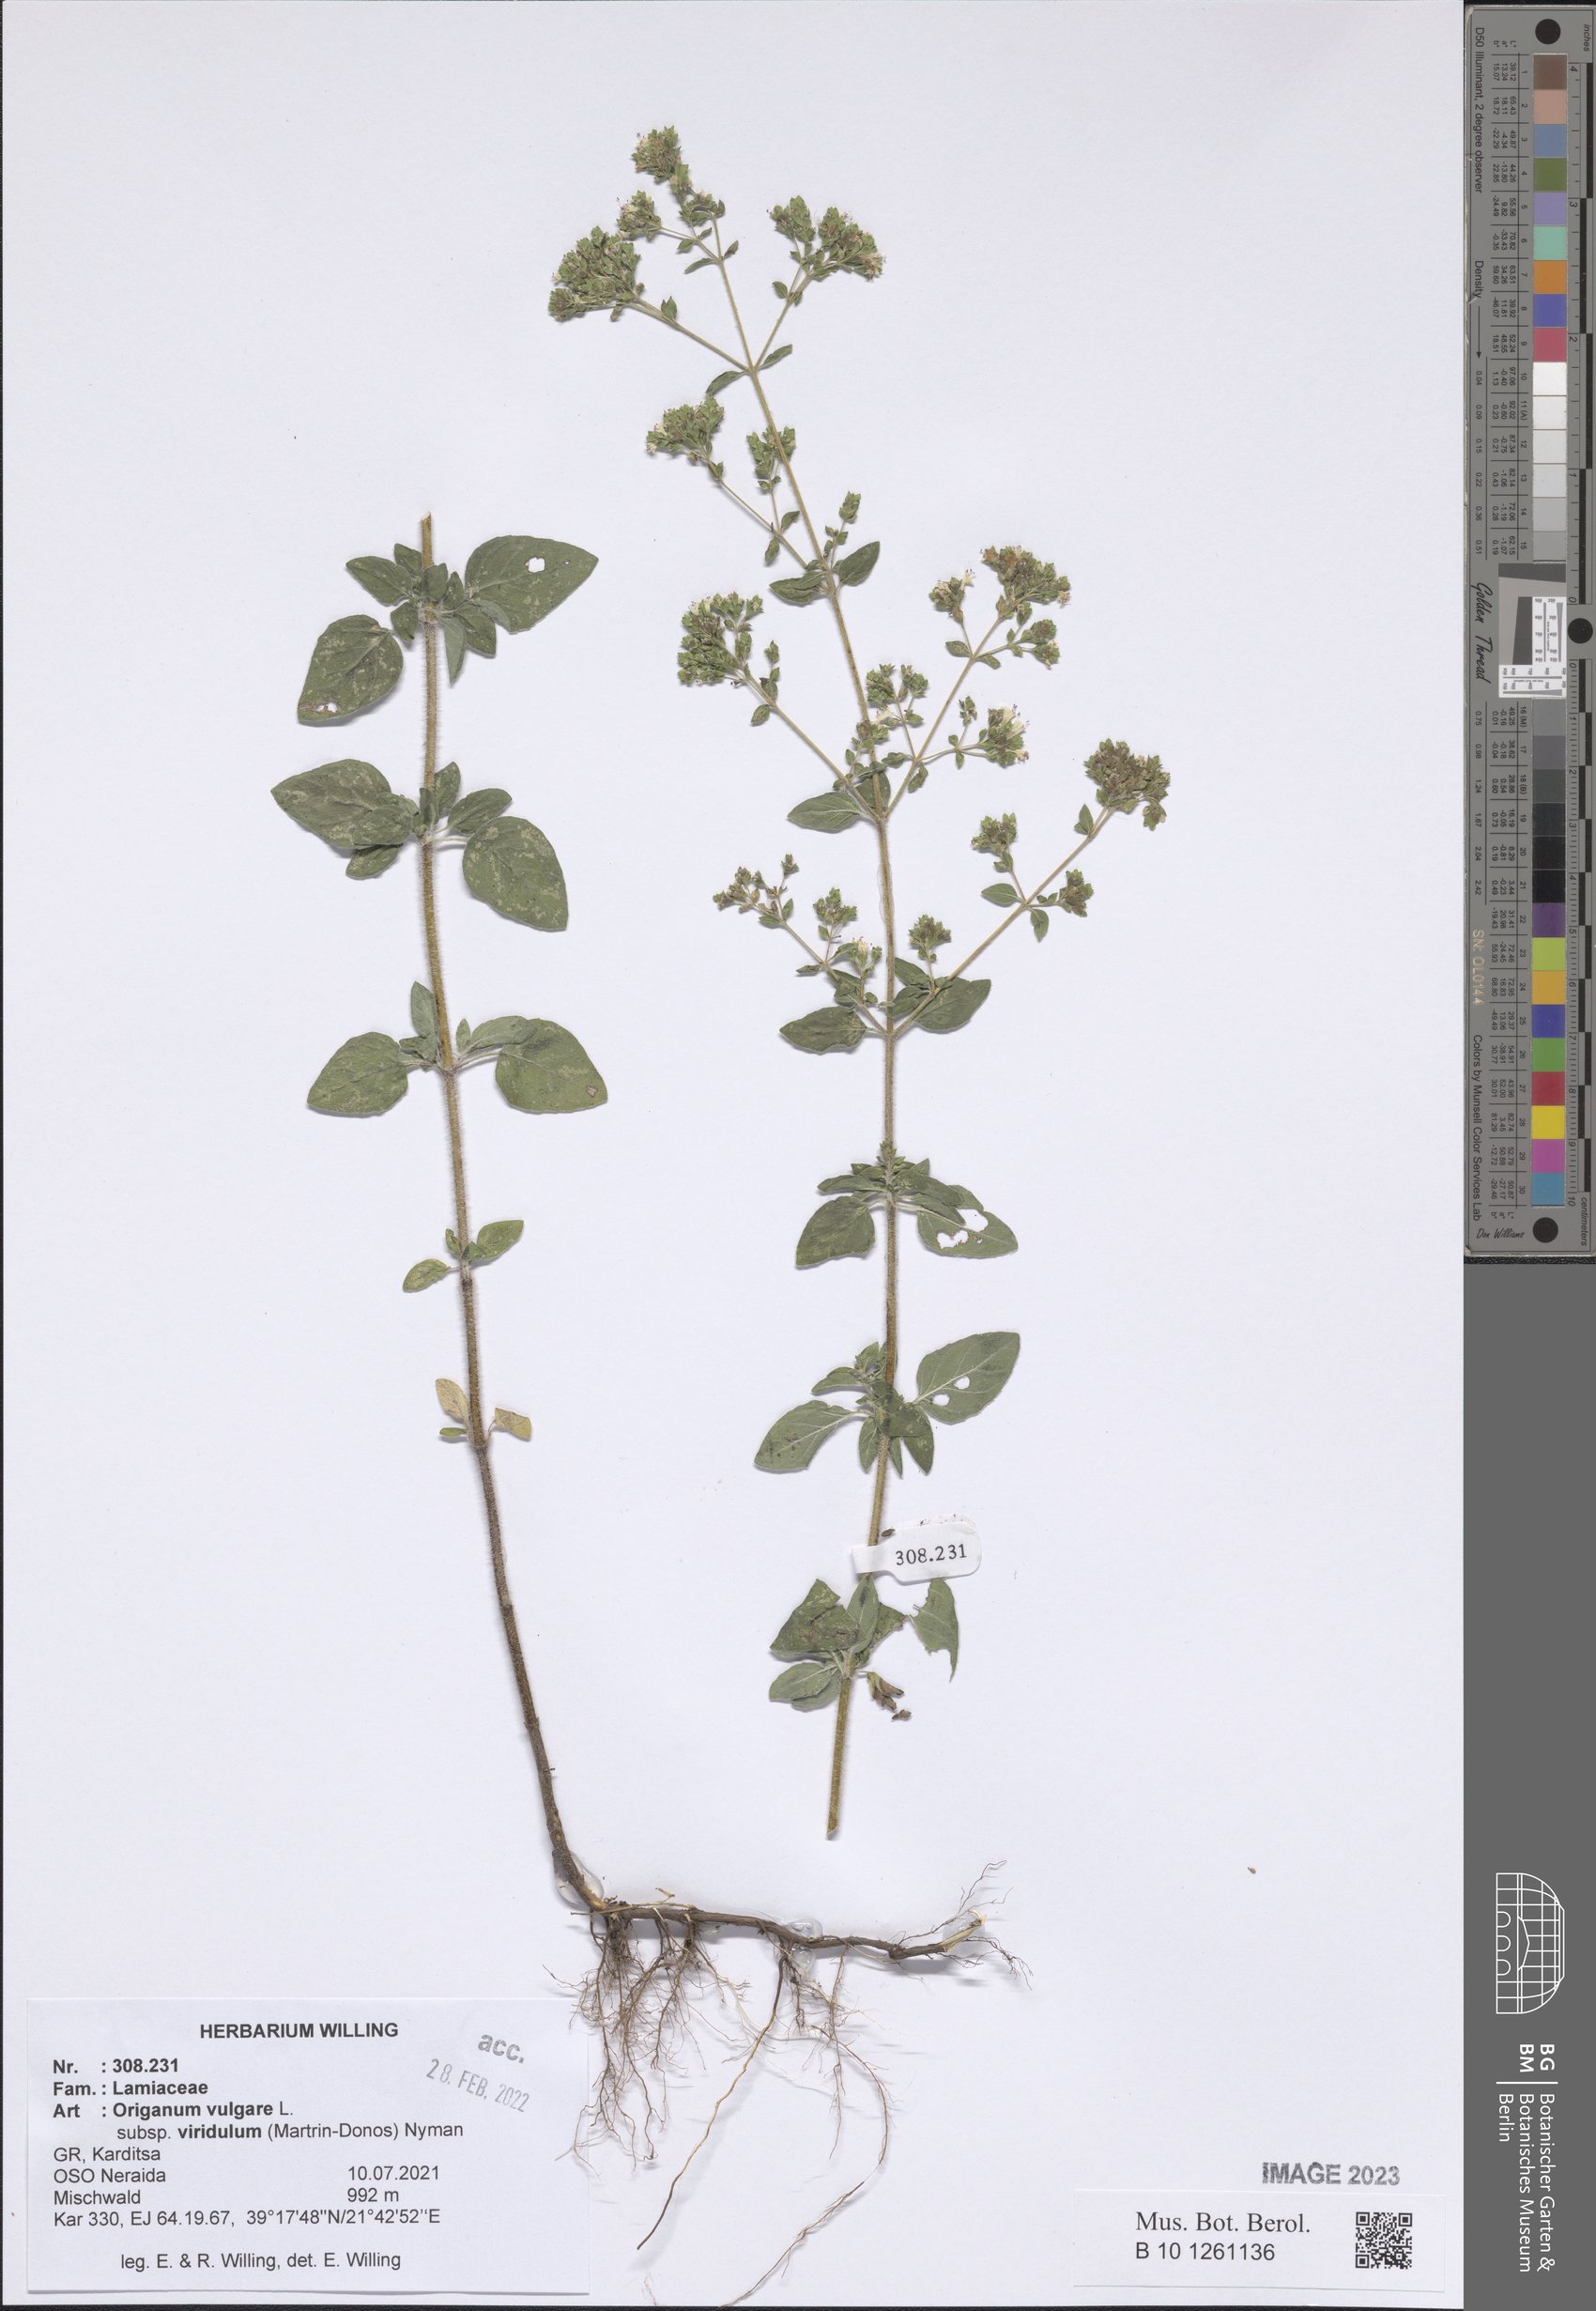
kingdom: Plantae
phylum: Tracheophyta
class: Magnoliopsida
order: Lamiales
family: Lamiaceae
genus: Origanum
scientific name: Origanum vulgare
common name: Wild marjoram
